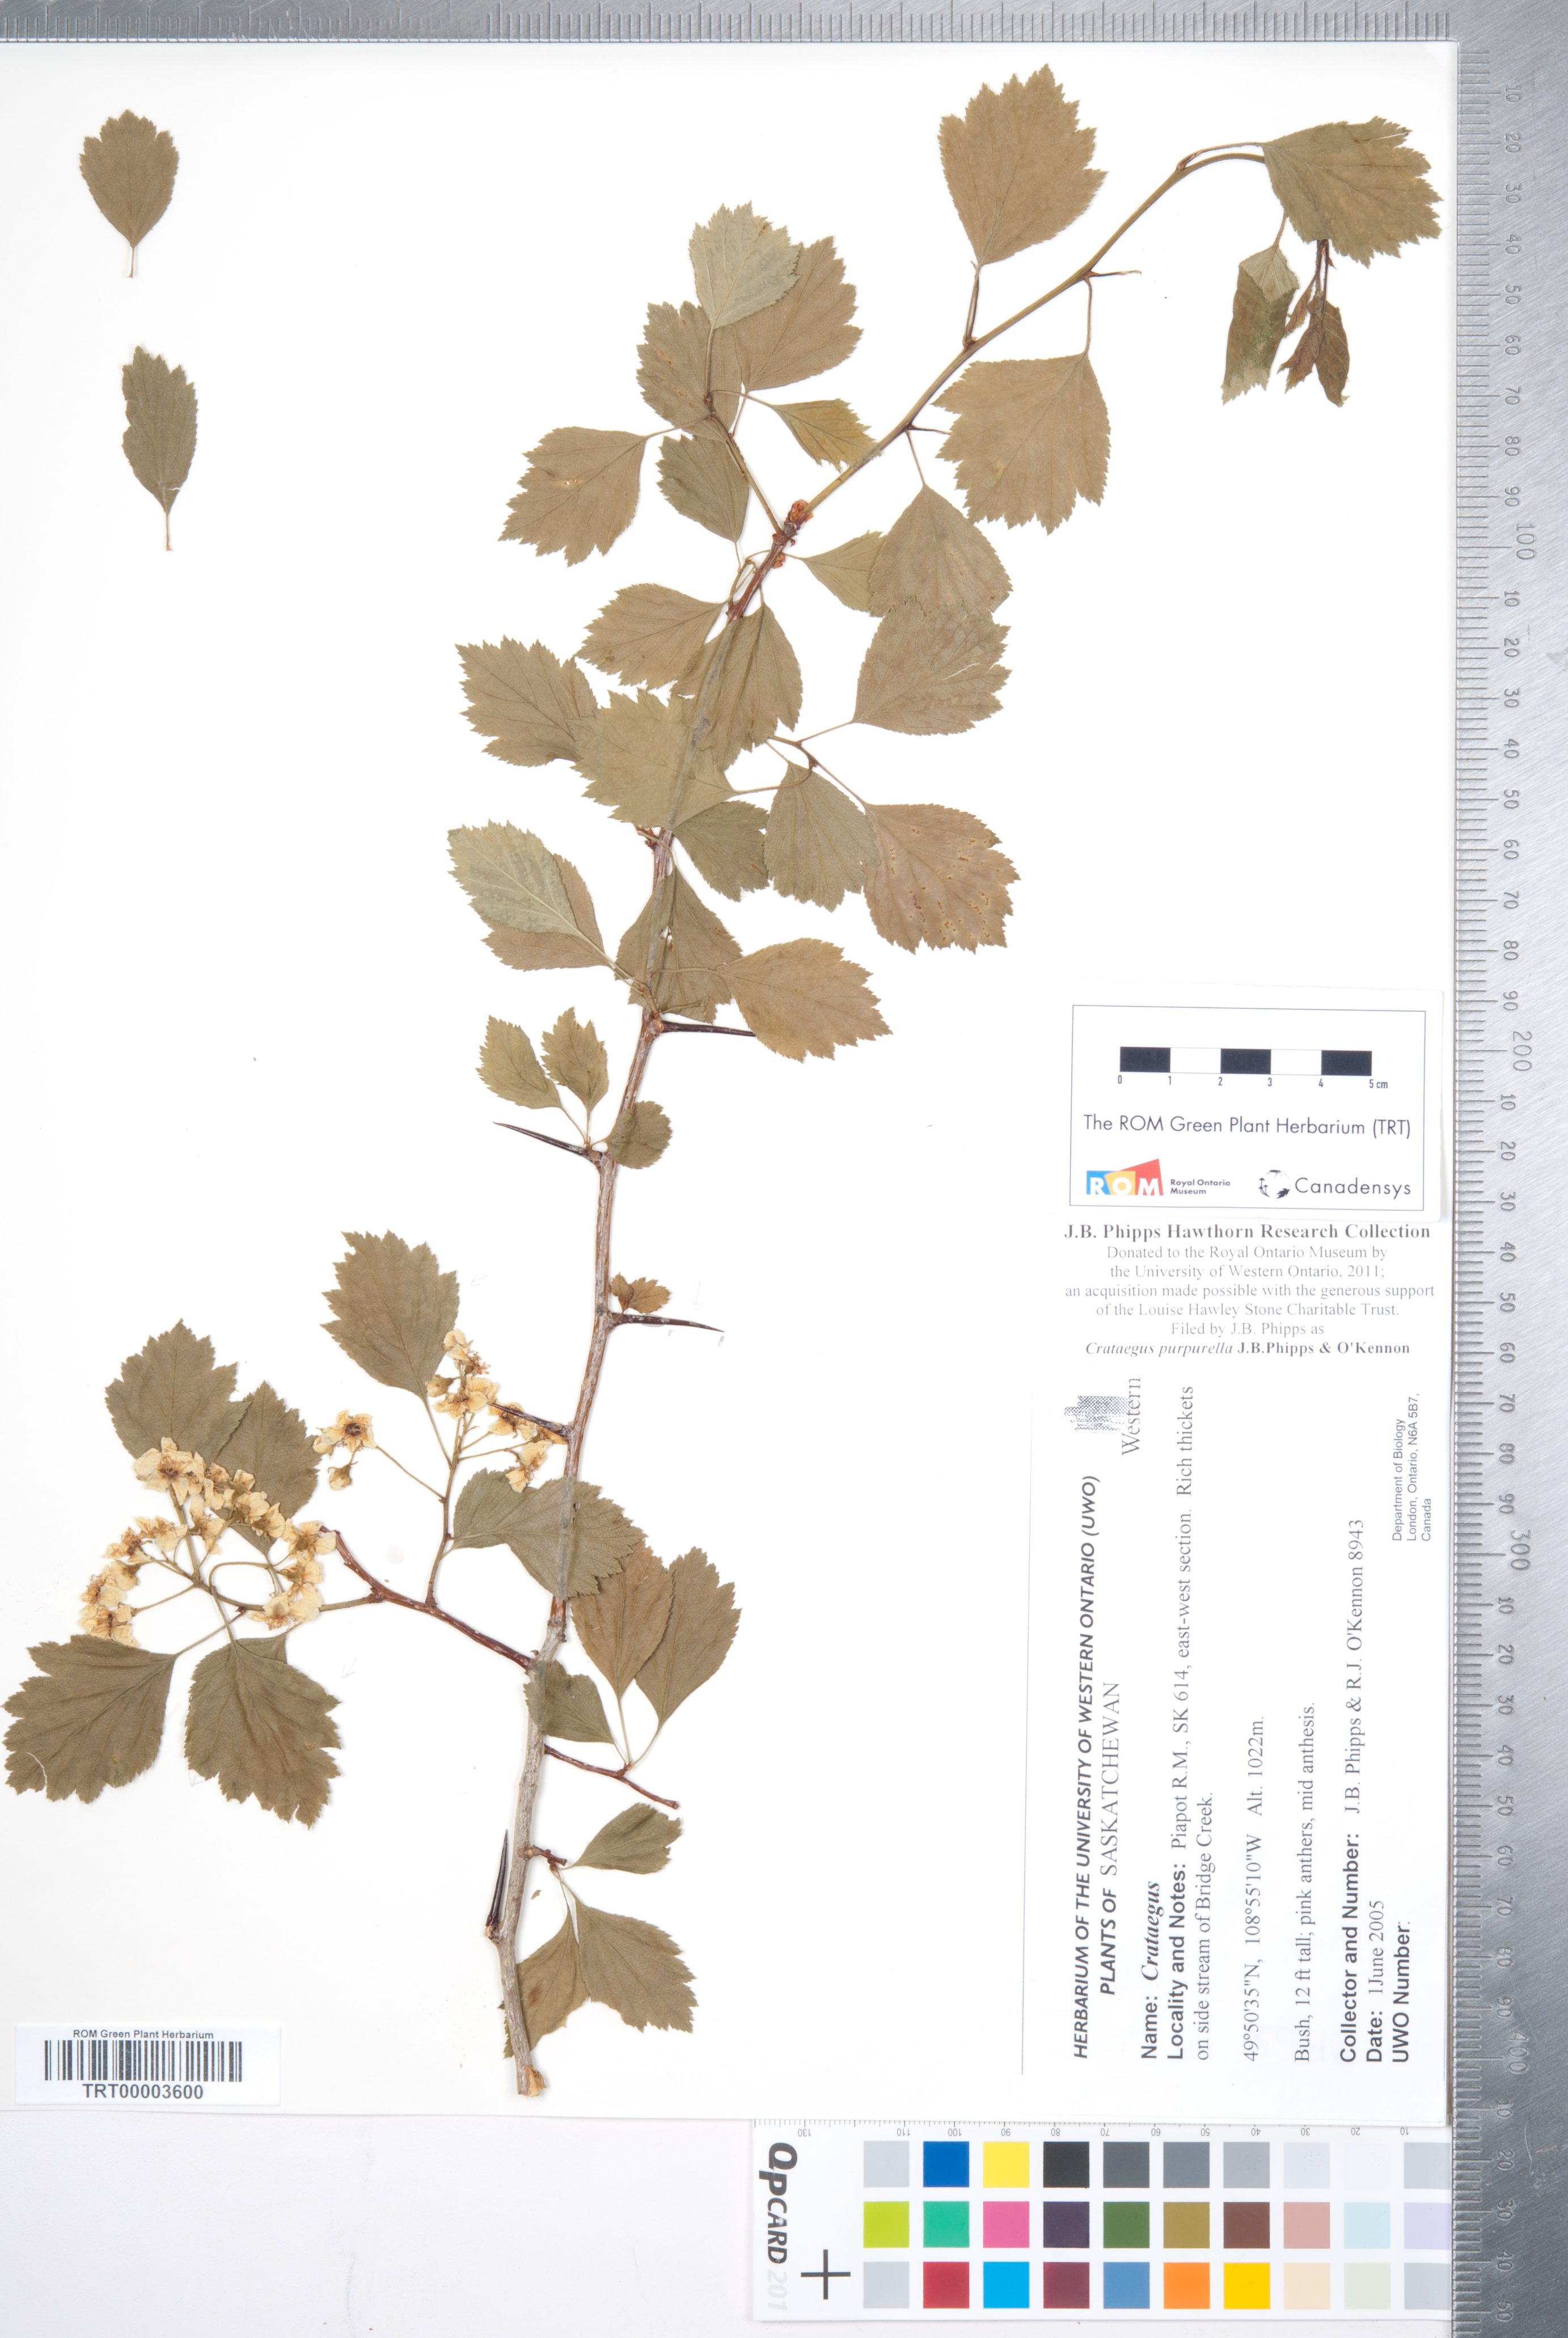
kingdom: Plantae
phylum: Tracheophyta
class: Magnoliopsida
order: Rosales
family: Rosaceae
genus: Crataegus
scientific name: Crataegus purpurella
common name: Loch lomond hawthorn
